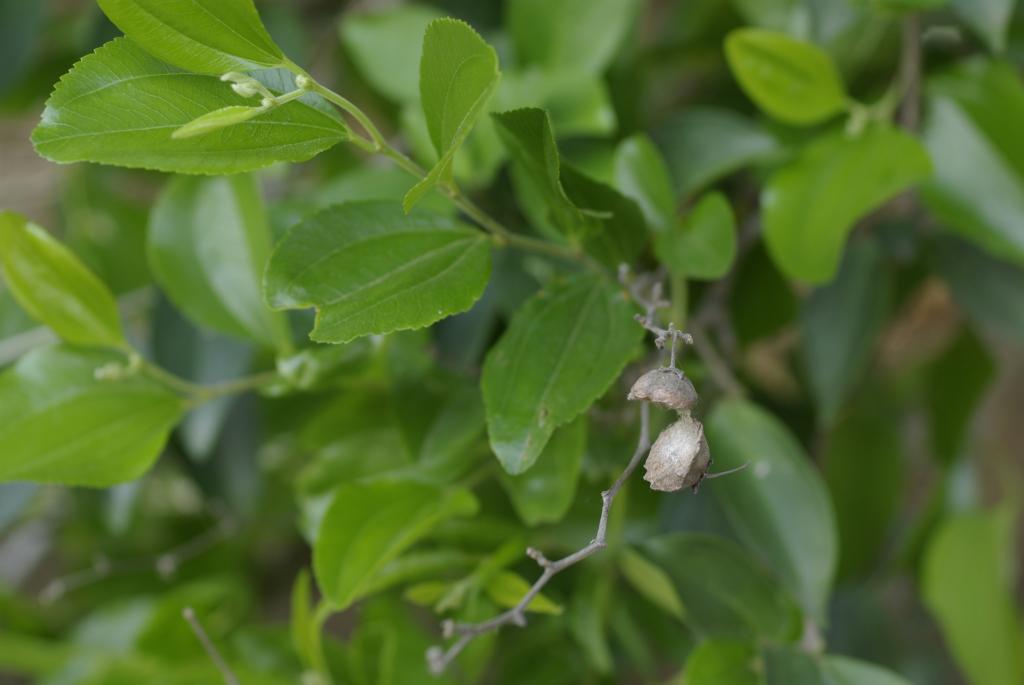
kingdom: Plantae
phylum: Tracheophyta
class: Magnoliopsida
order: Rosales
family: Rhamnaceae
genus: Paliurus
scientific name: Paliurus ramosissimus
